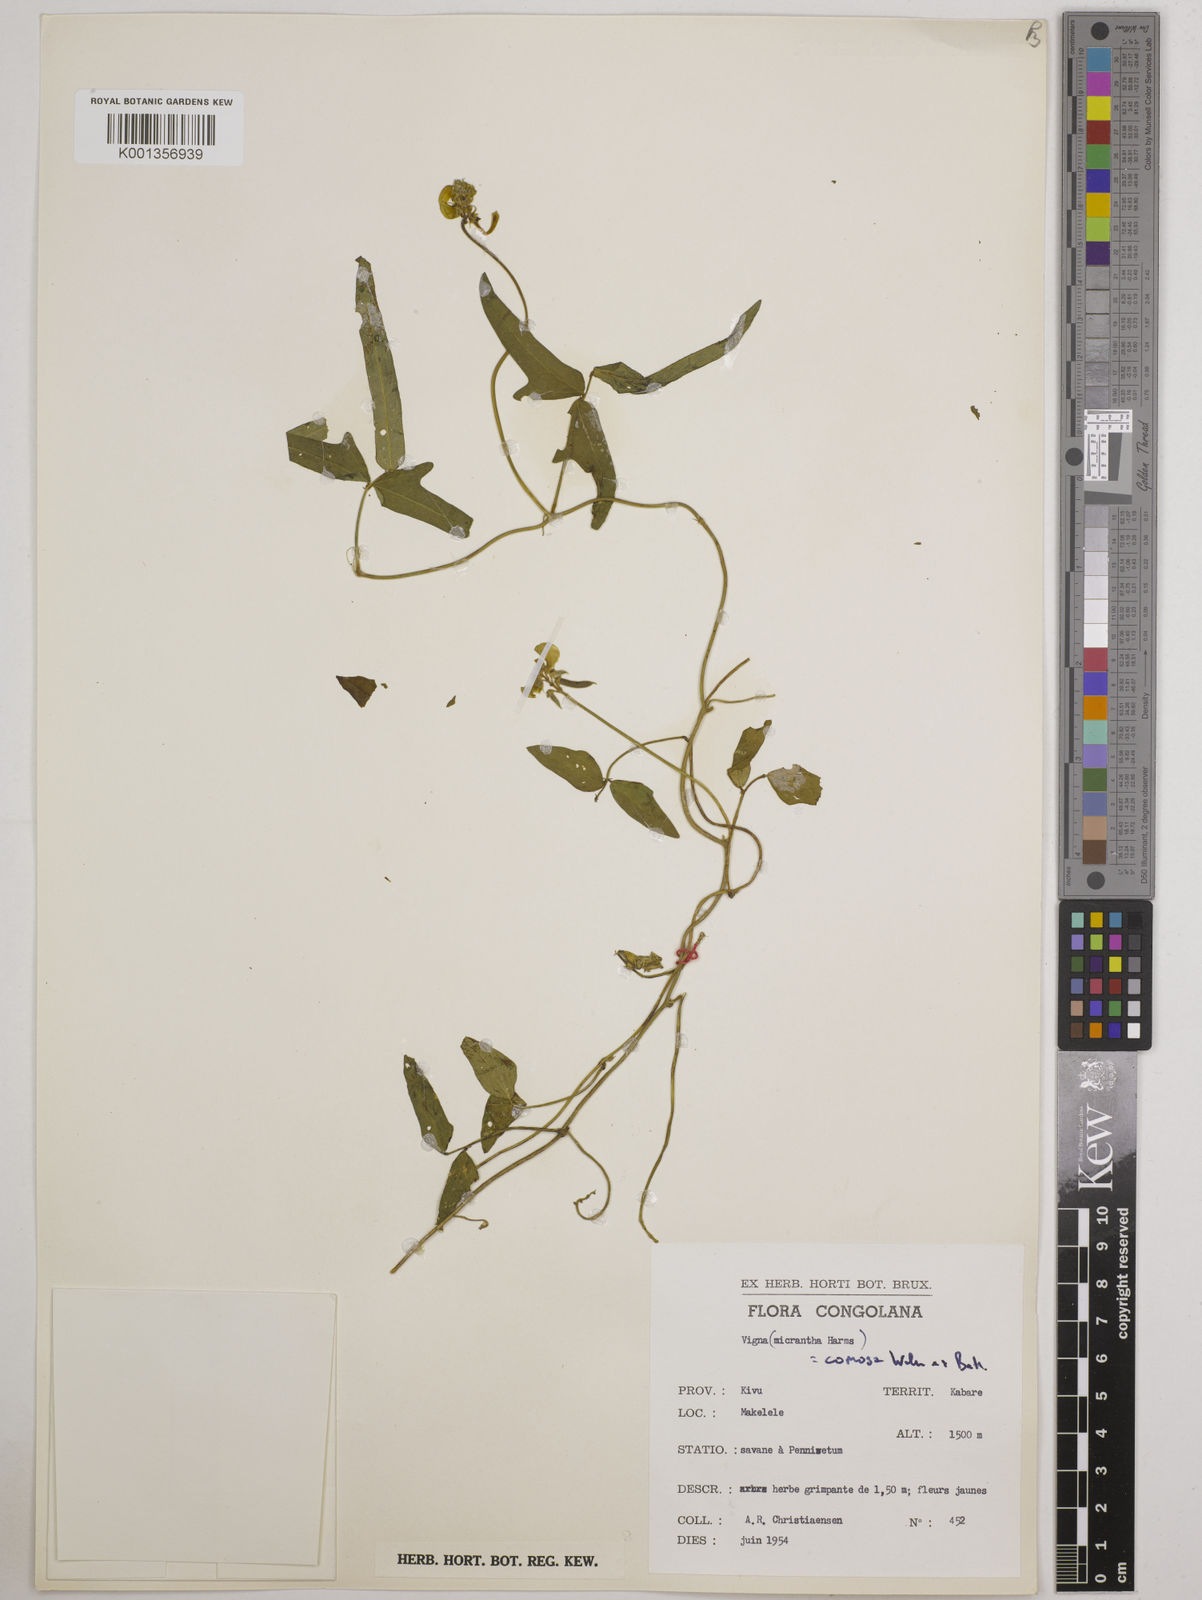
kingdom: Plantae
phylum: Tracheophyta
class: Magnoliopsida
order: Fabales
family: Fabaceae
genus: Vigna
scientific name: Vigna comosa
